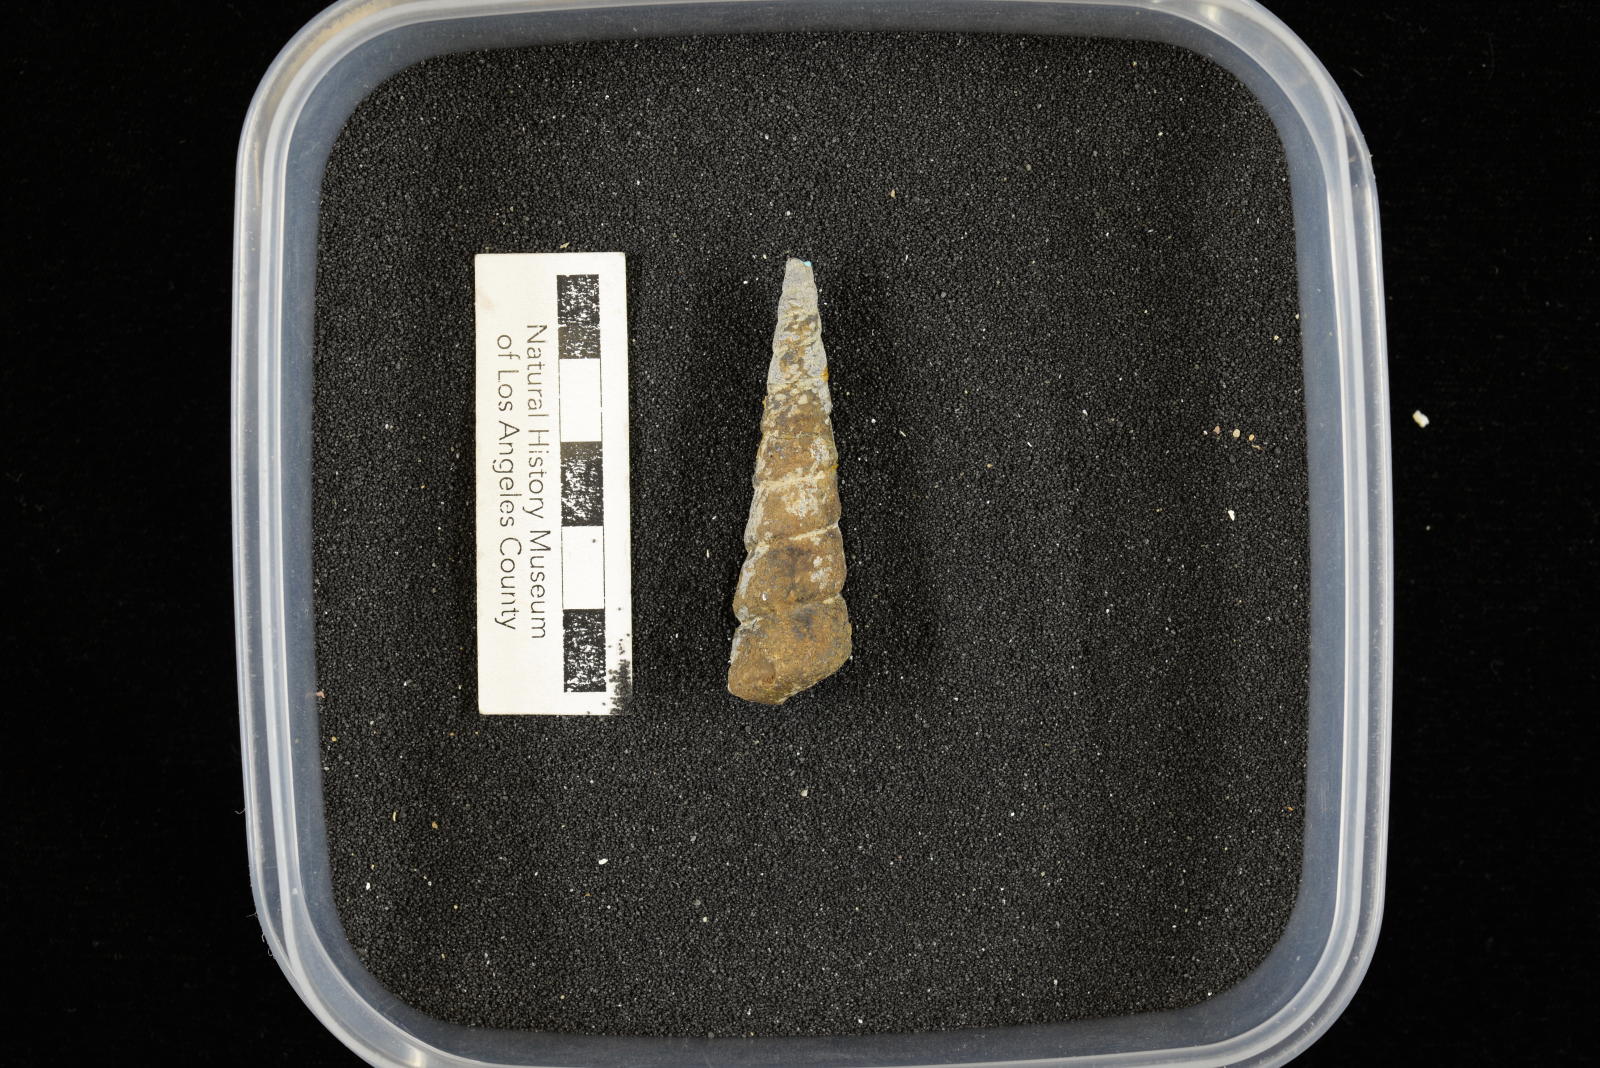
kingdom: Animalia
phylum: Mollusca
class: Gastropoda
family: Turritellidae
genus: Turritella
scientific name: Turritella chaneyi
